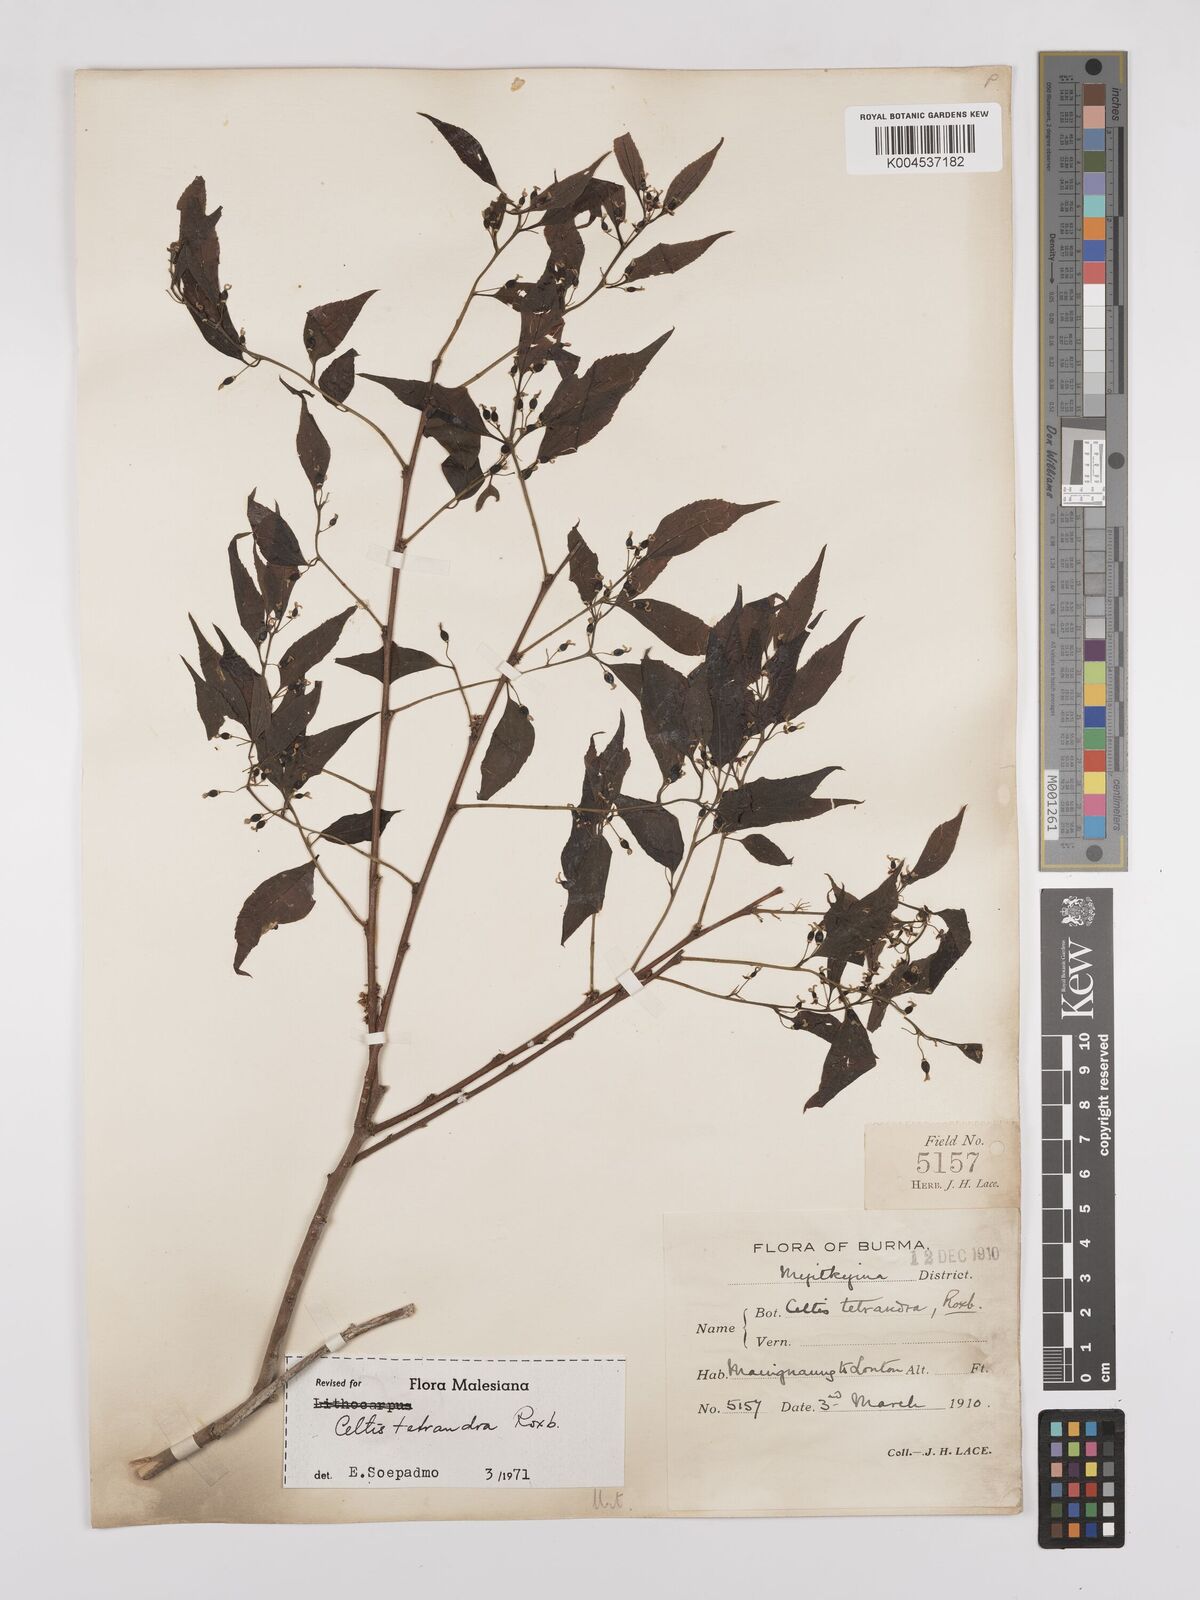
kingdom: Plantae
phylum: Tracheophyta
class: Magnoliopsida
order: Rosales
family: Cannabaceae
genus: Celtis
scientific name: Celtis tetrandra
